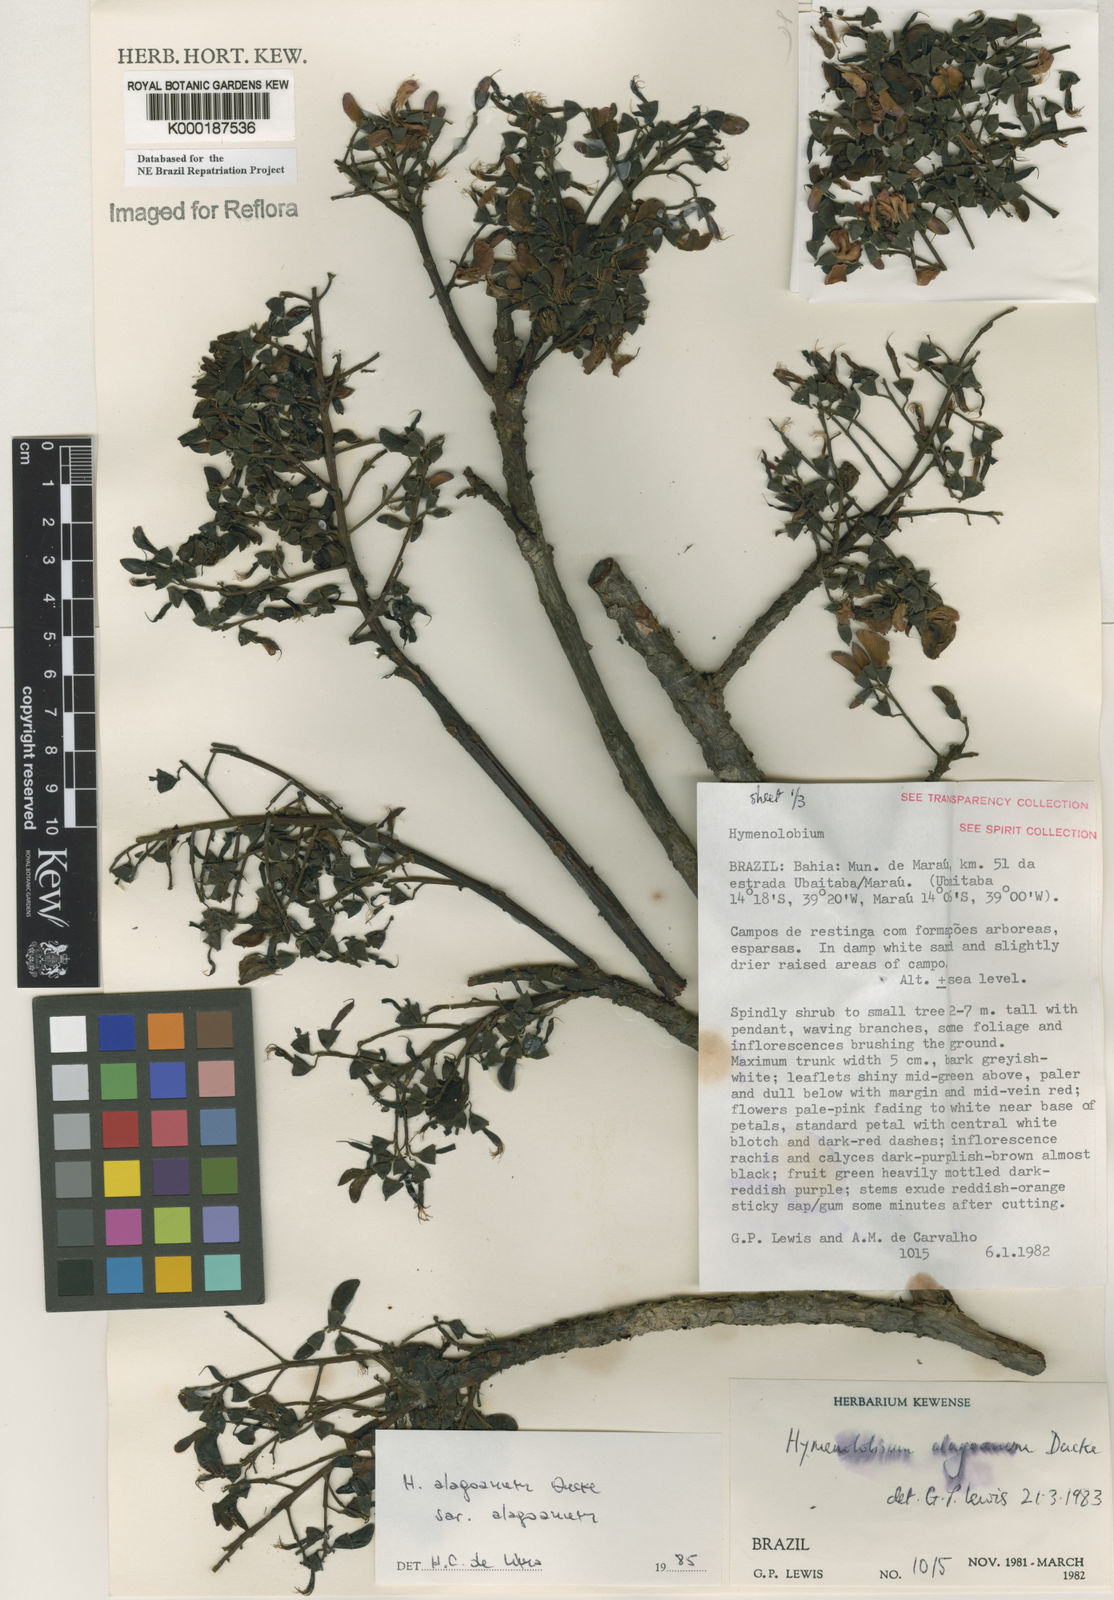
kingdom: Plantae
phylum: Tracheophyta
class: Magnoliopsida
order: Fabales
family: Fabaceae
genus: Hymenolobium
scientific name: Hymenolobium alagoanum
